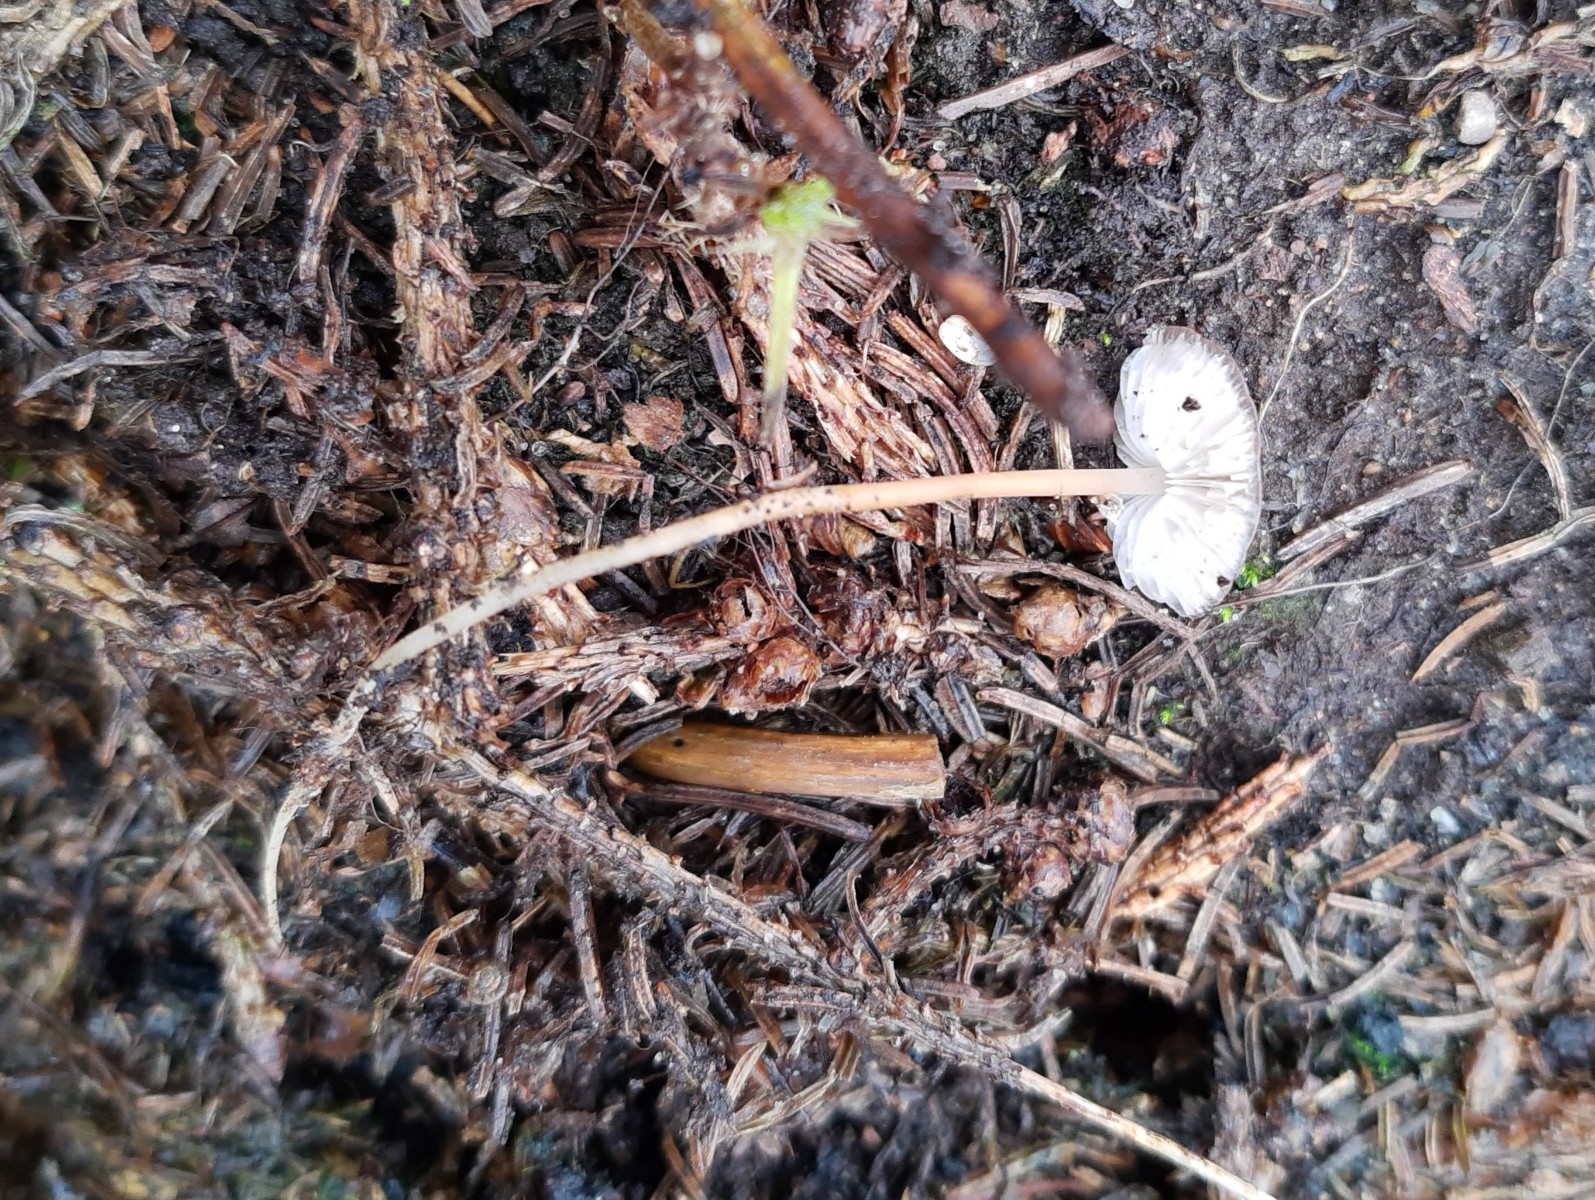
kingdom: Fungi
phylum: Basidiomycota
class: Agaricomycetes
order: Agaricales
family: Physalacriaceae
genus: Strobilurus
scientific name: Strobilurus esculentus
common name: gran-koglehat
